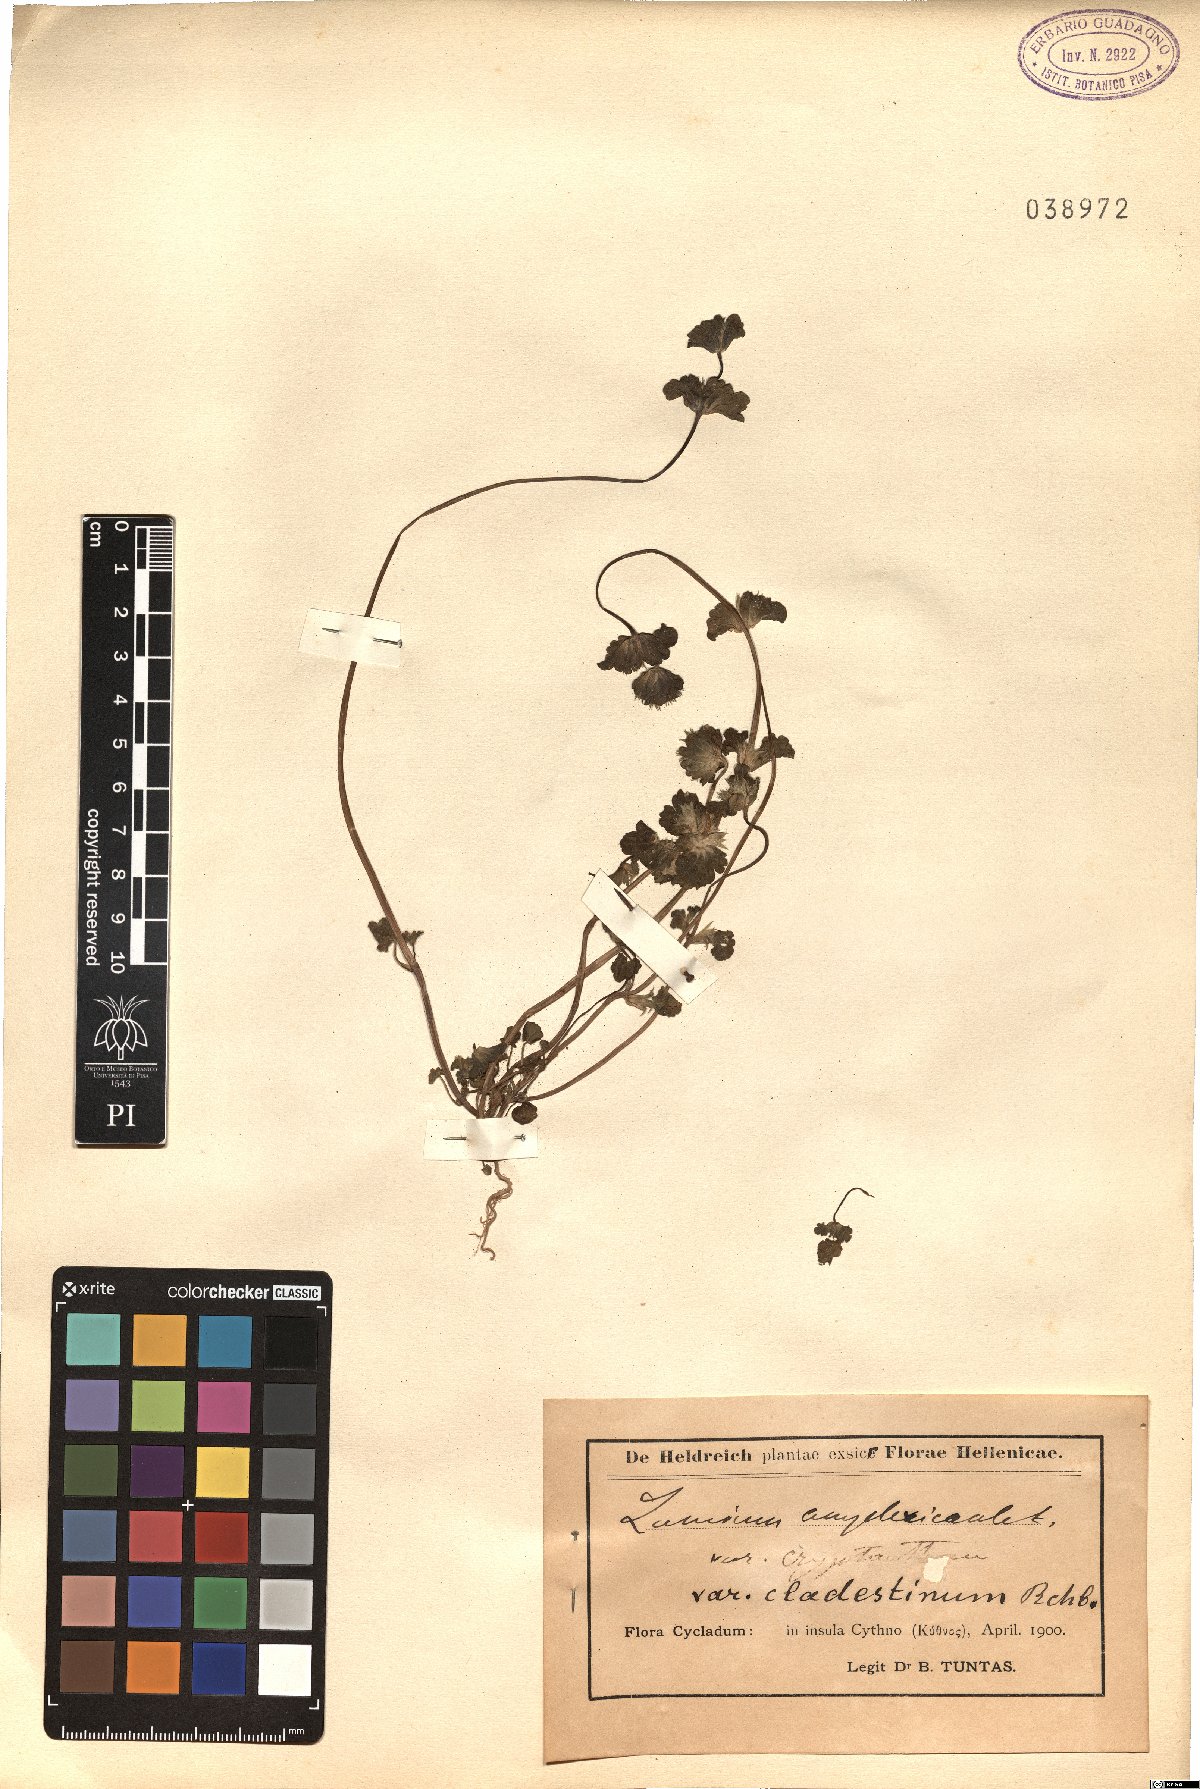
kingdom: Plantae
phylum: Tracheophyta
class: Magnoliopsida
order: Lamiales
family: Lamiaceae
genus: Lamium
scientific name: Lamium amplexicaule
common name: Henbit dead-nettle
